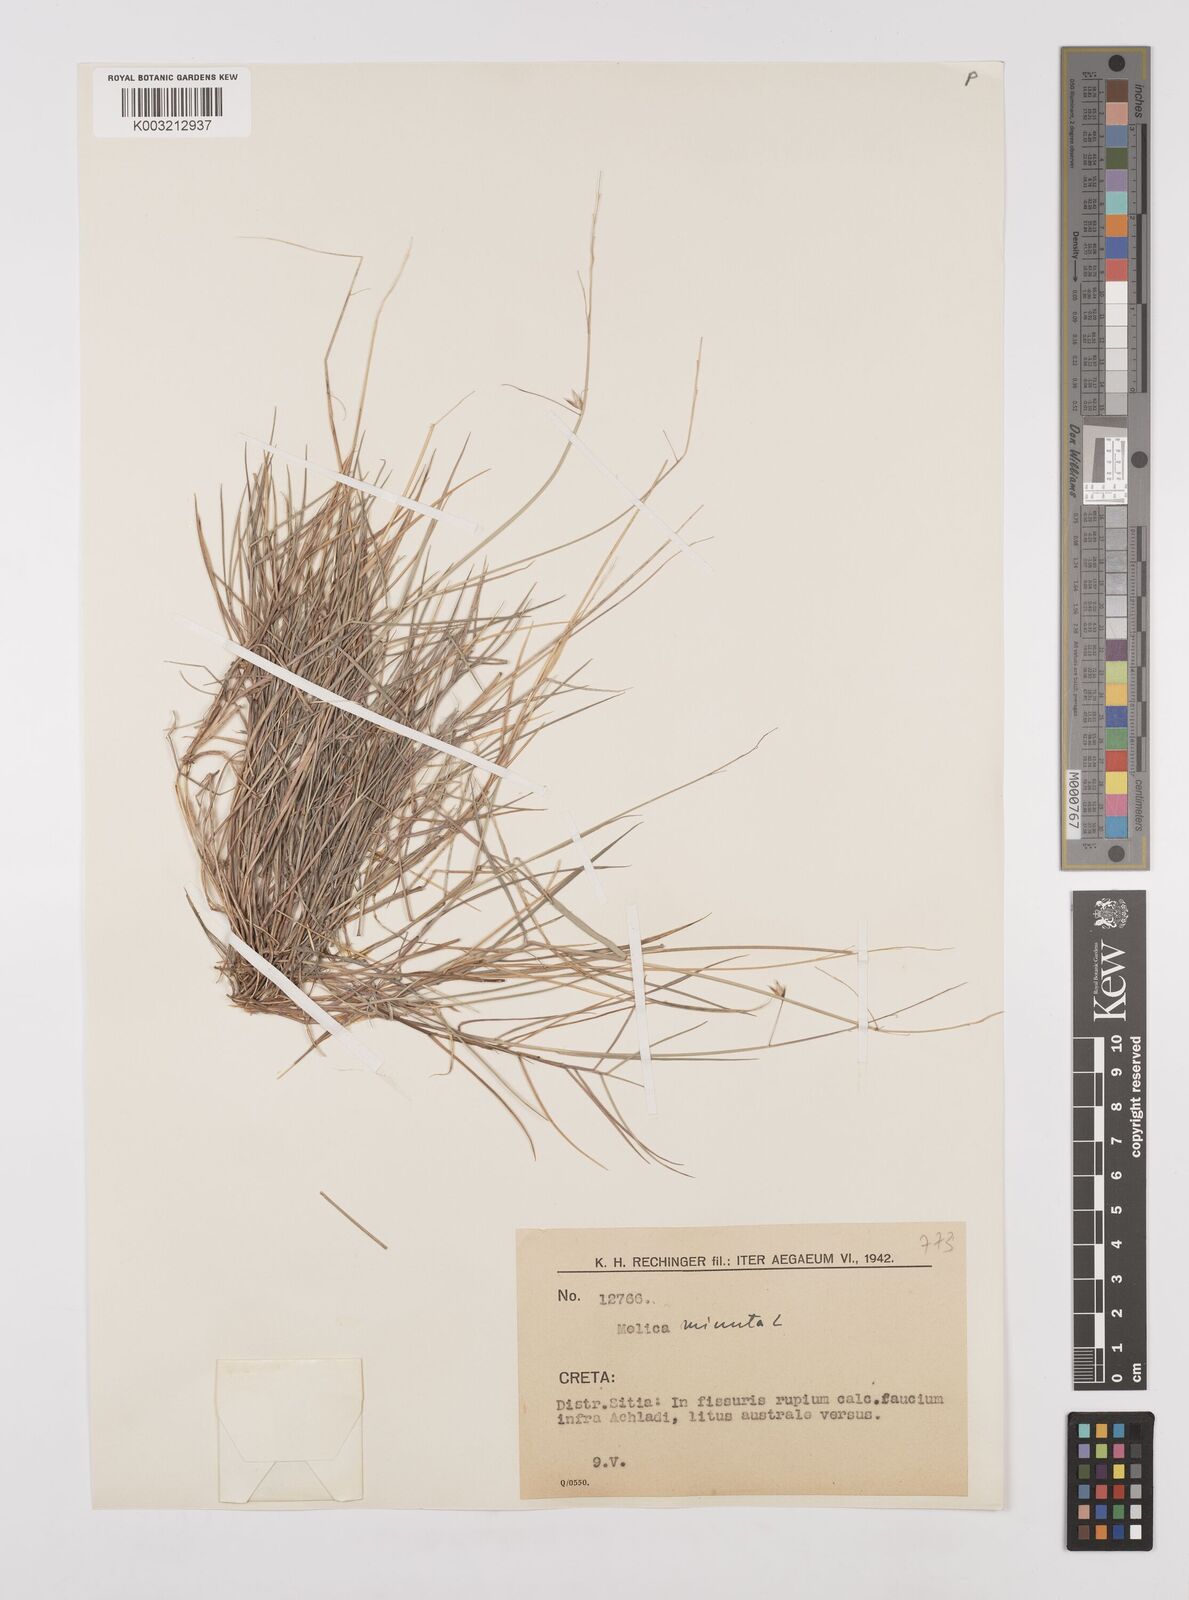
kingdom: Plantae
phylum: Tracheophyta
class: Liliopsida
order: Poales
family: Poaceae
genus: Melica
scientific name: Melica minuta
